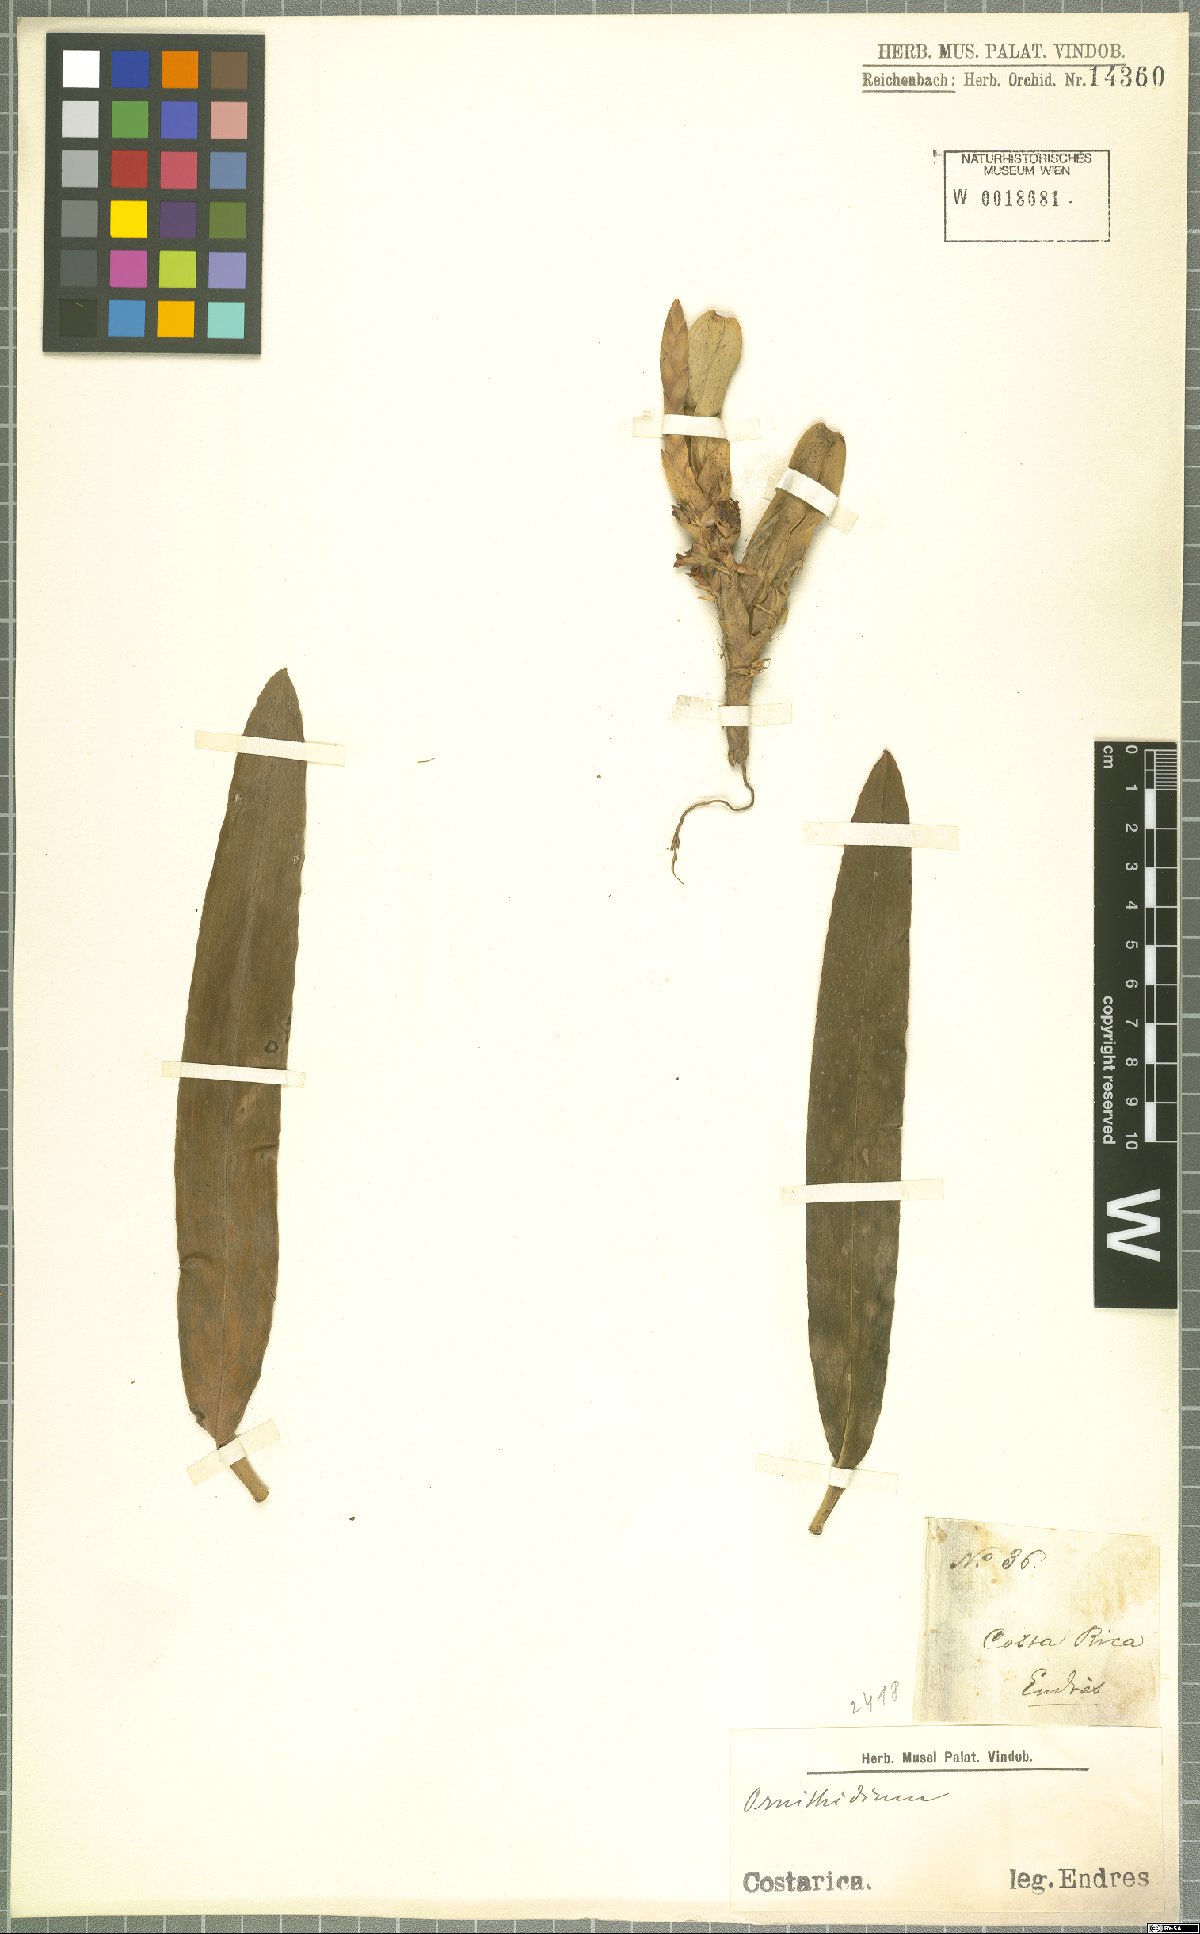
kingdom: Plantae
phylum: Tracheophyta
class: Liliopsida
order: Asparagales
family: Orchidaceae
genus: Maxillaria
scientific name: Maxillaria
